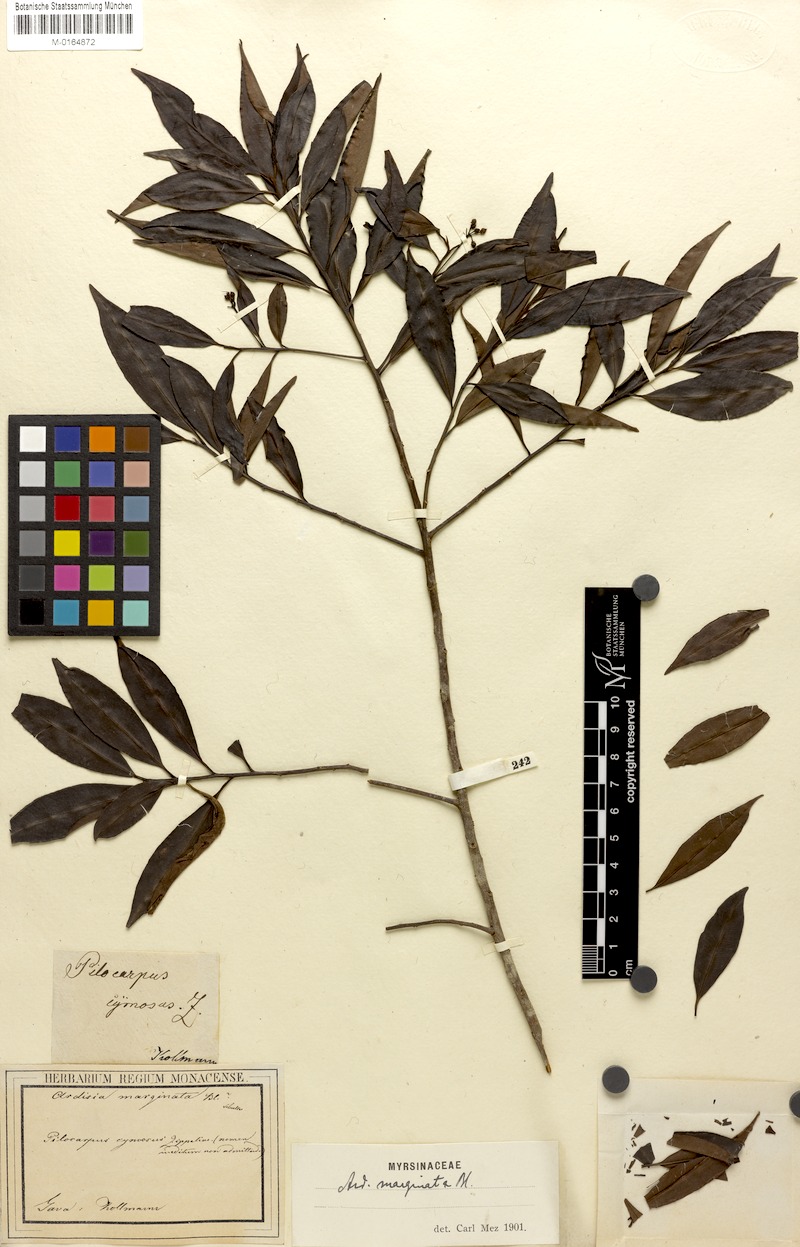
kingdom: Plantae
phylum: Tracheophyta
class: Magnoliopsida
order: Ericales
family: Primulaceae
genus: Ardisia
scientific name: Ardisia marginata
